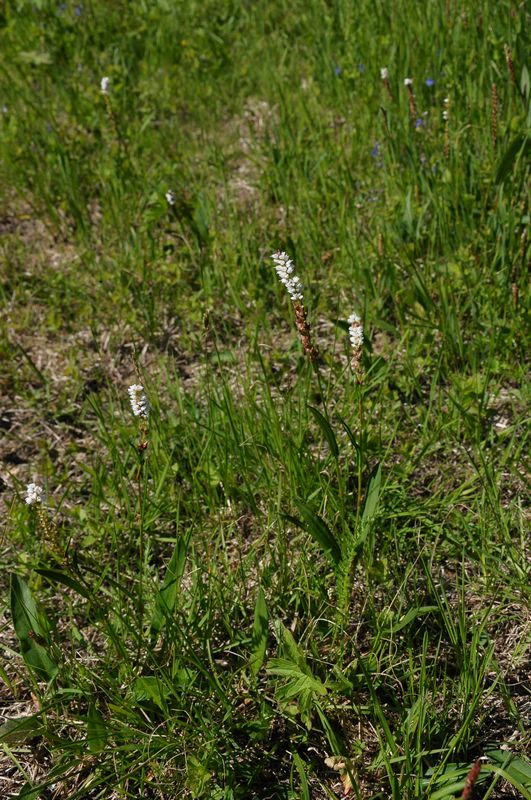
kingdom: Plantae
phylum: Tracheophyta
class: Magnoliopsida
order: Caryophyllales
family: Polygonaceae
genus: Bistorta
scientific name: Bistorta vivipara
